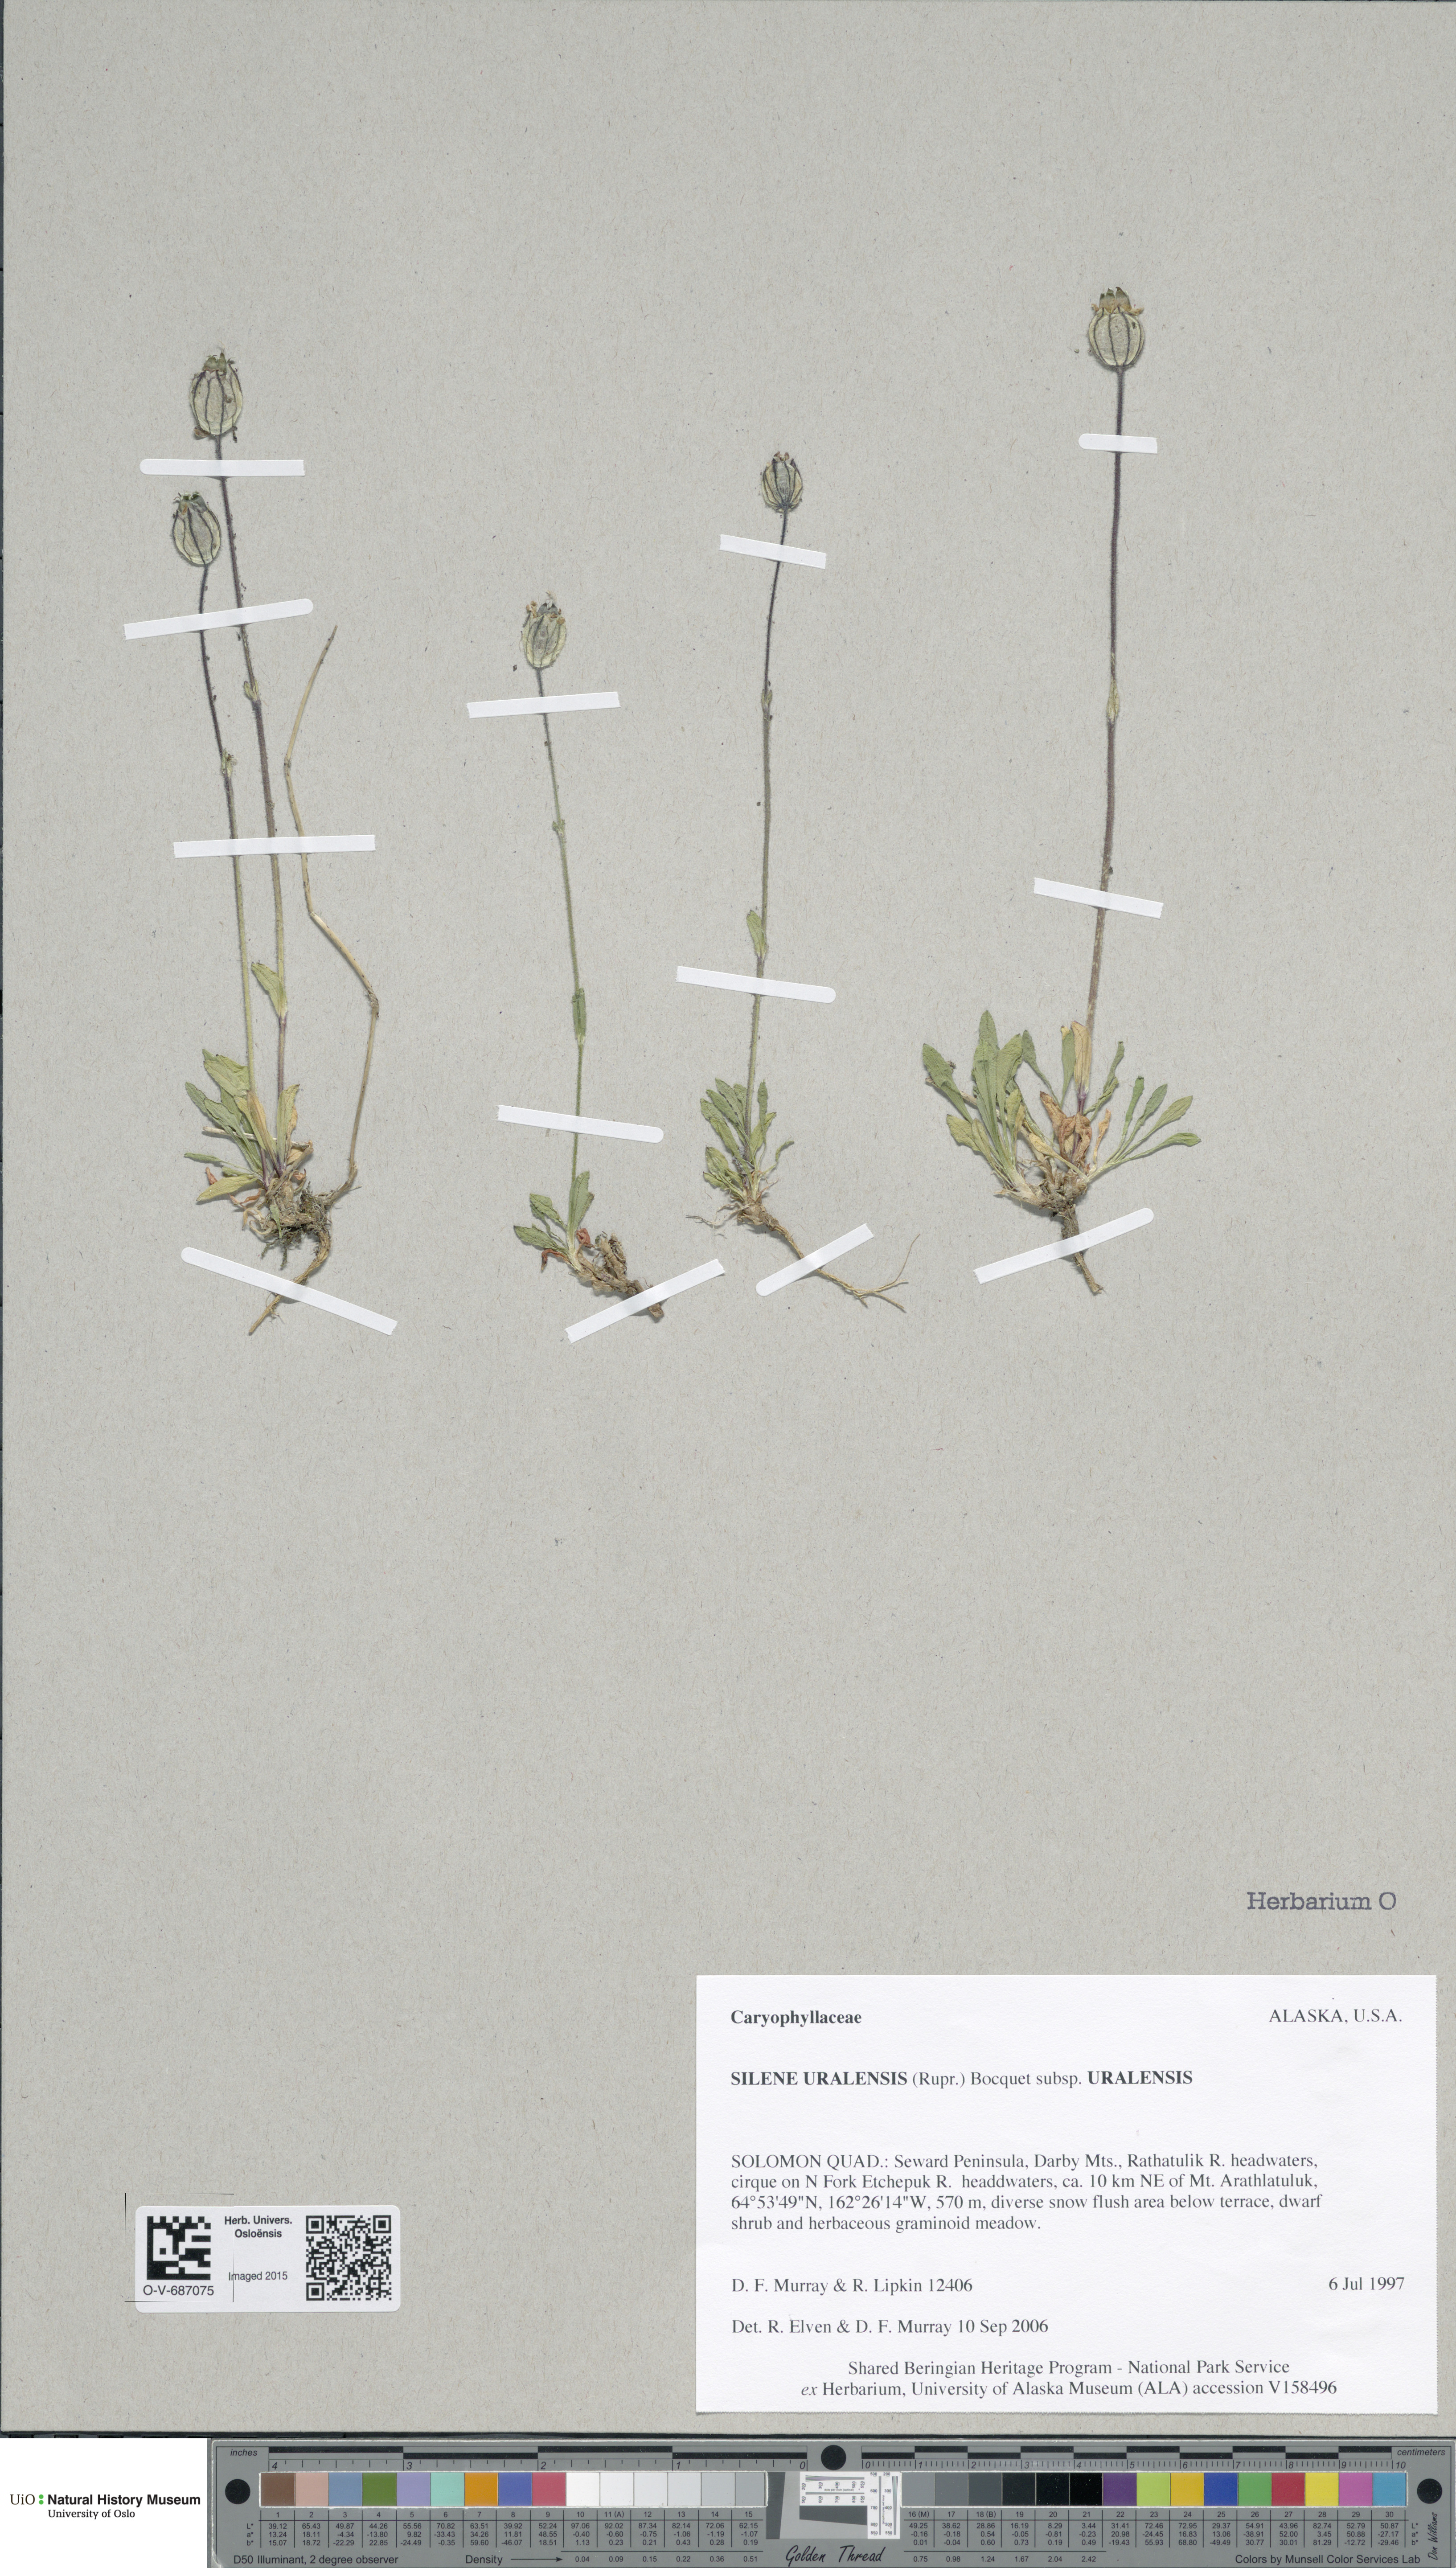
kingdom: Plantae
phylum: Tracheophyta
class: Magnoliopsida
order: Caryophyllales
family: Caryophyllaceae
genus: Silene
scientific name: Silene uralensis
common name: Nodding campion
